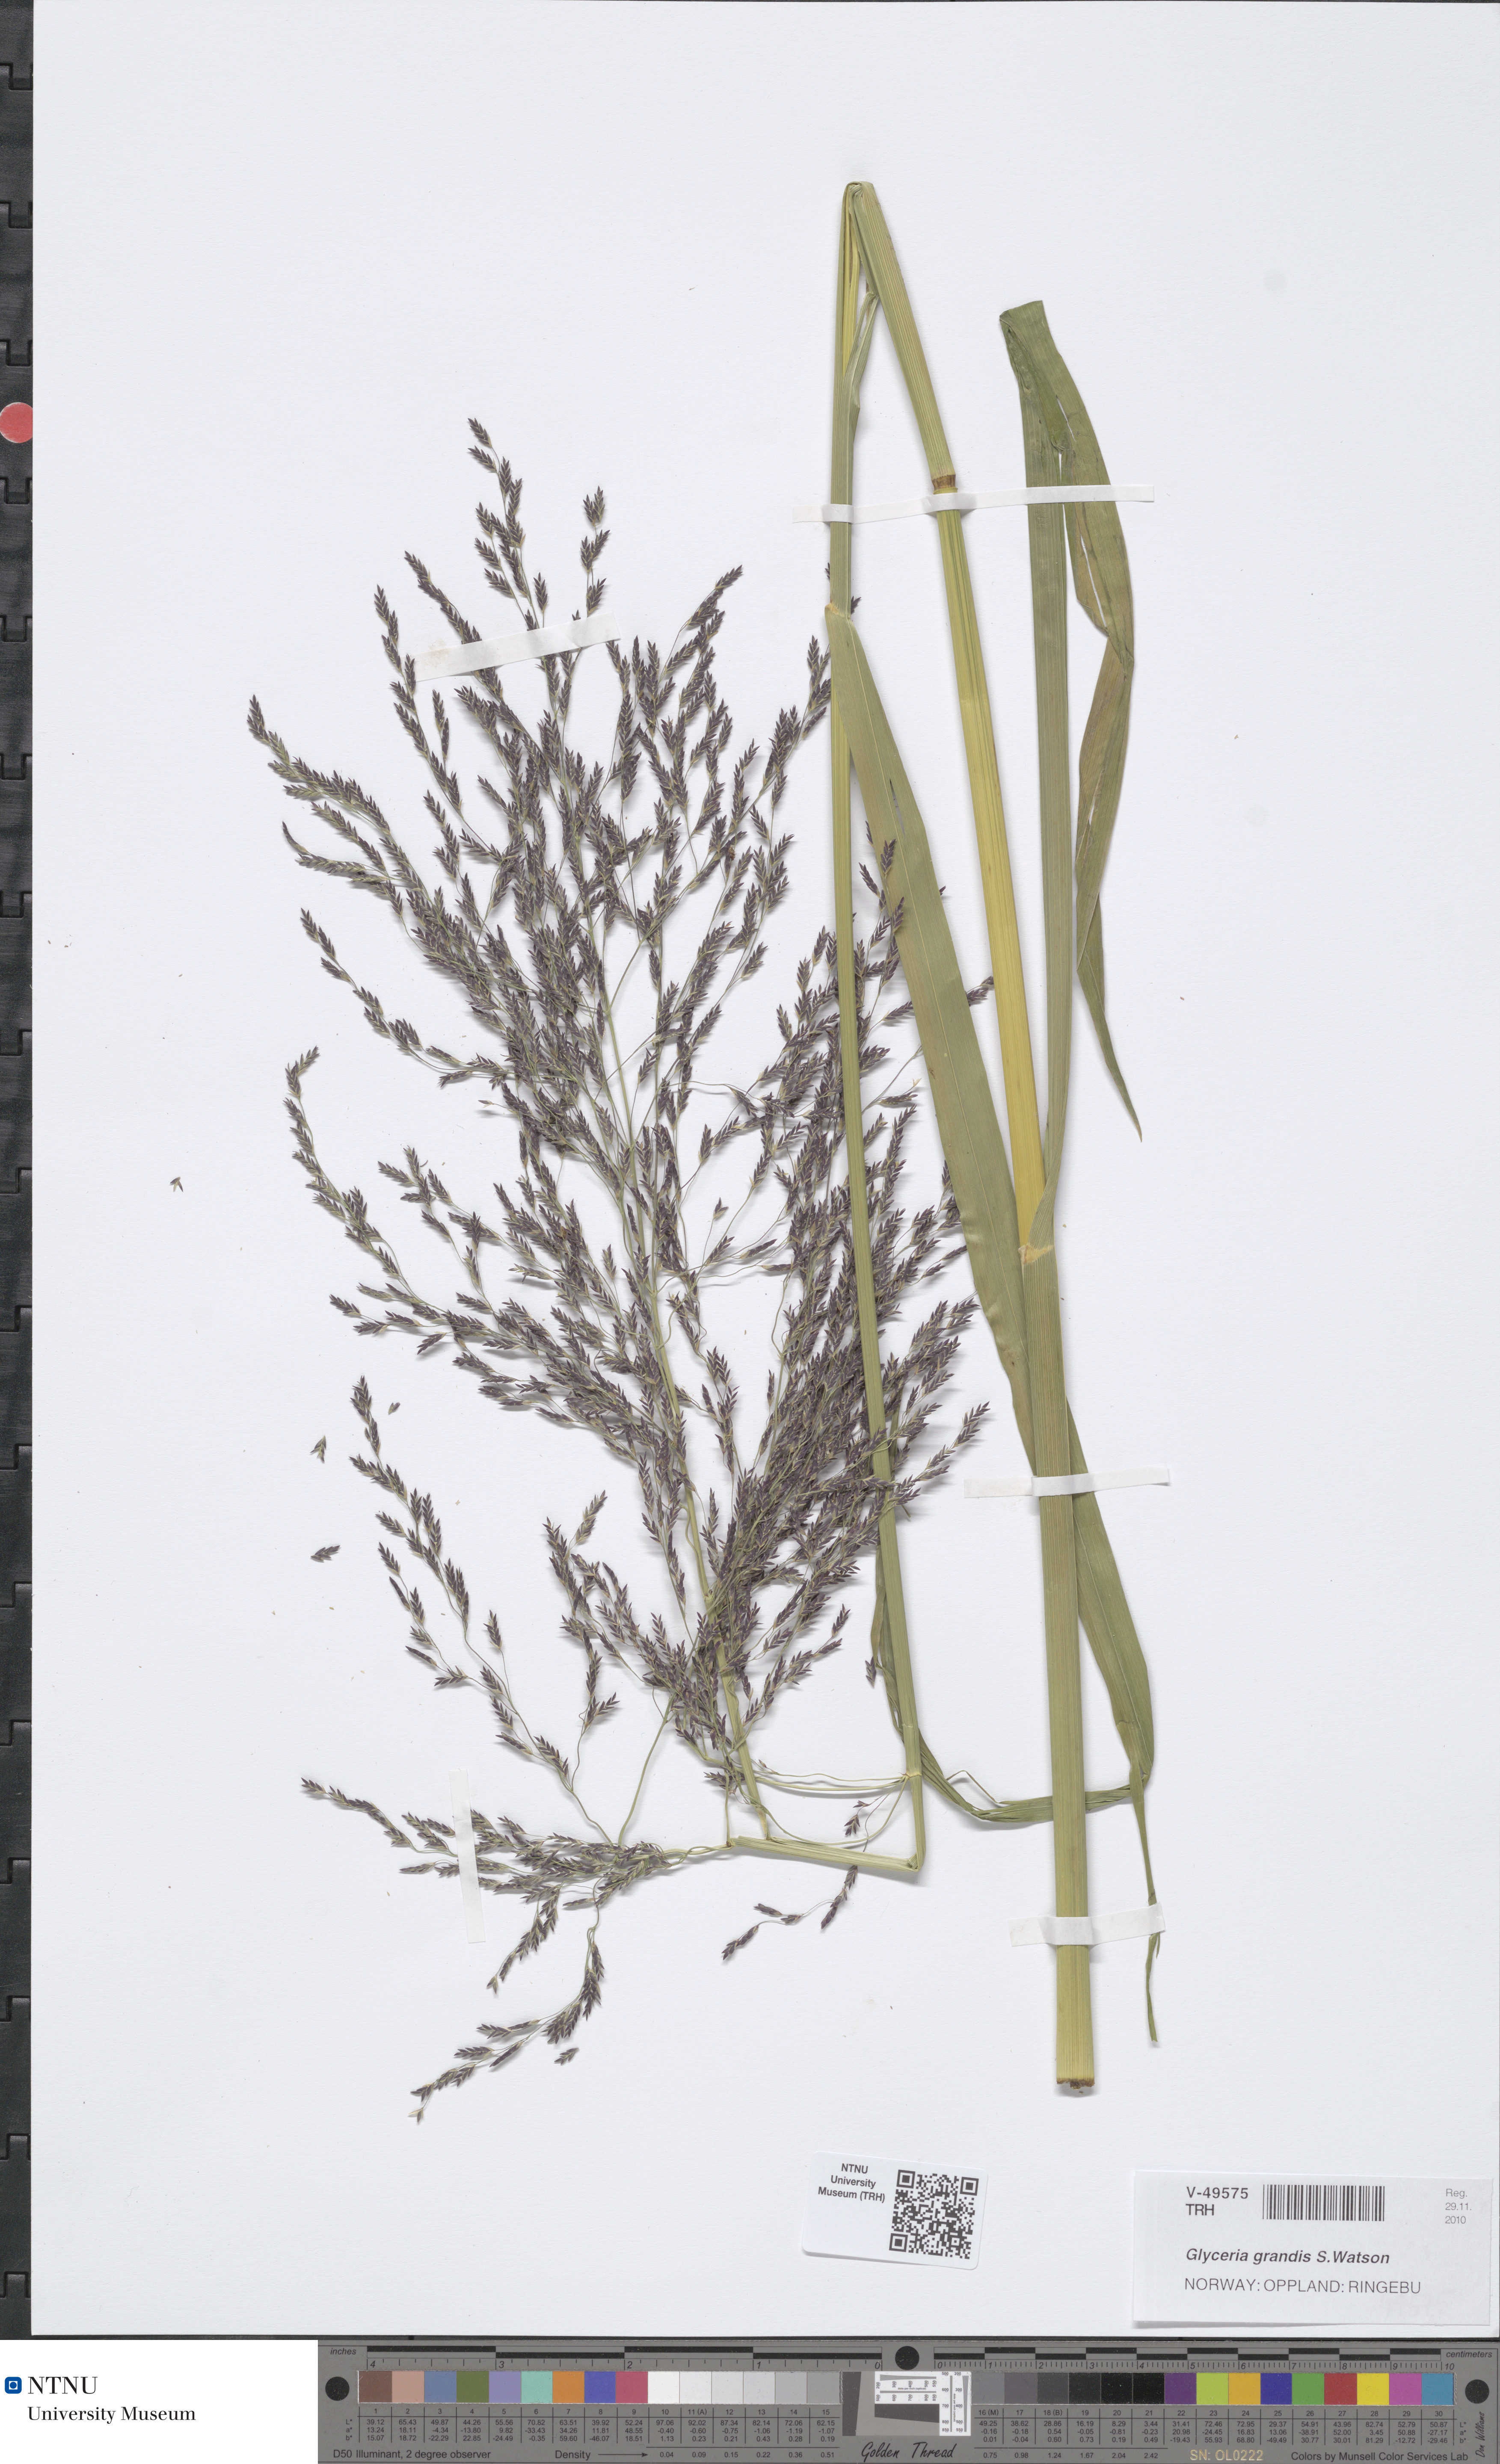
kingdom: Plantae
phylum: Tracheophyta
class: Liliopsida
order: Poales
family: Poaceae
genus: Glyceria
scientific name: Glyceria grandis
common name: American glyceria
